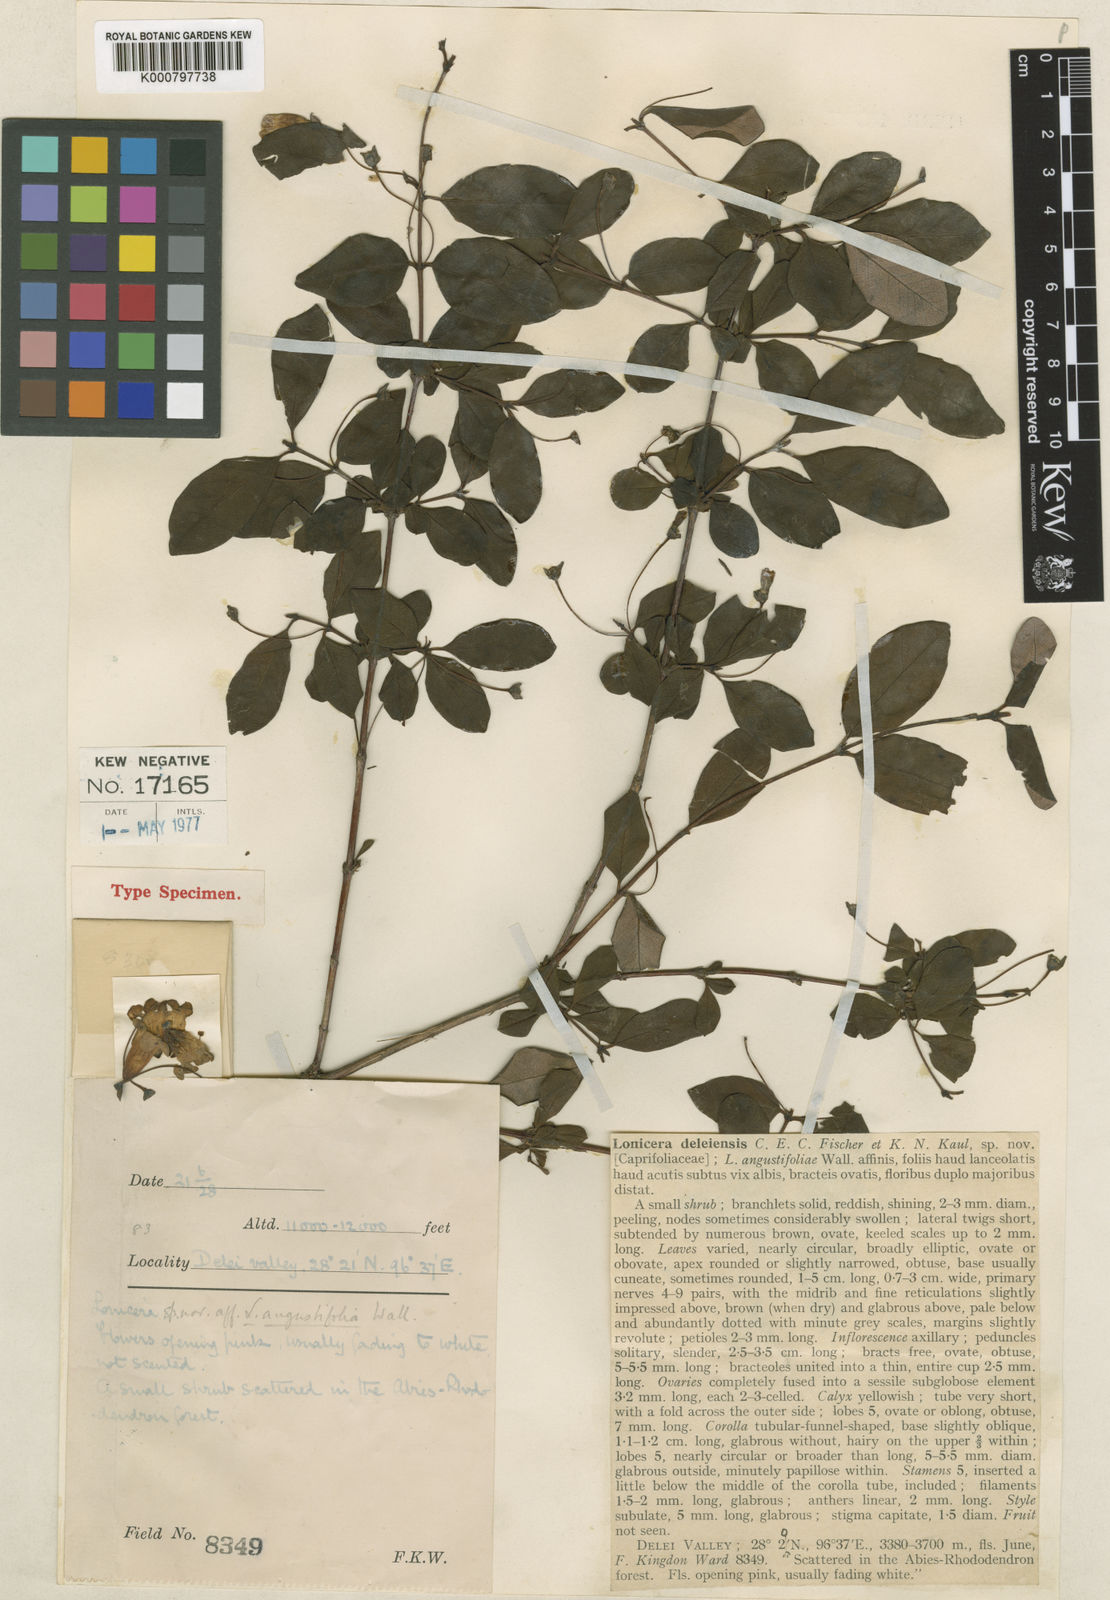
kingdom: Plantae
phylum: Tracheophyta
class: Magnoliopsida
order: Dipsacales
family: Caprifoliaceae
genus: Lonicera
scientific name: Lonicera deleiensis
